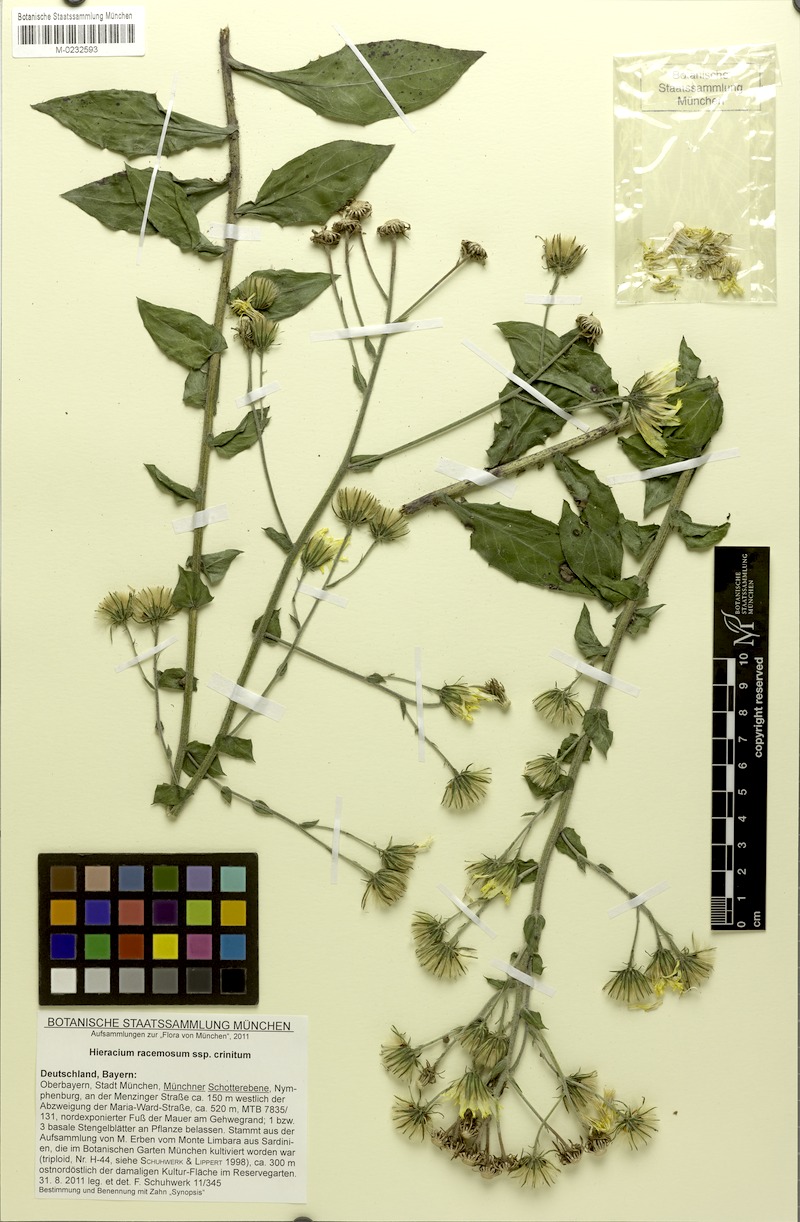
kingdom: Plantae
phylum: Tracheophyta
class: Magnoliopsida
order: Asterales
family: Asteraceae
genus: Hieracium
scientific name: Hieracium racemosum
